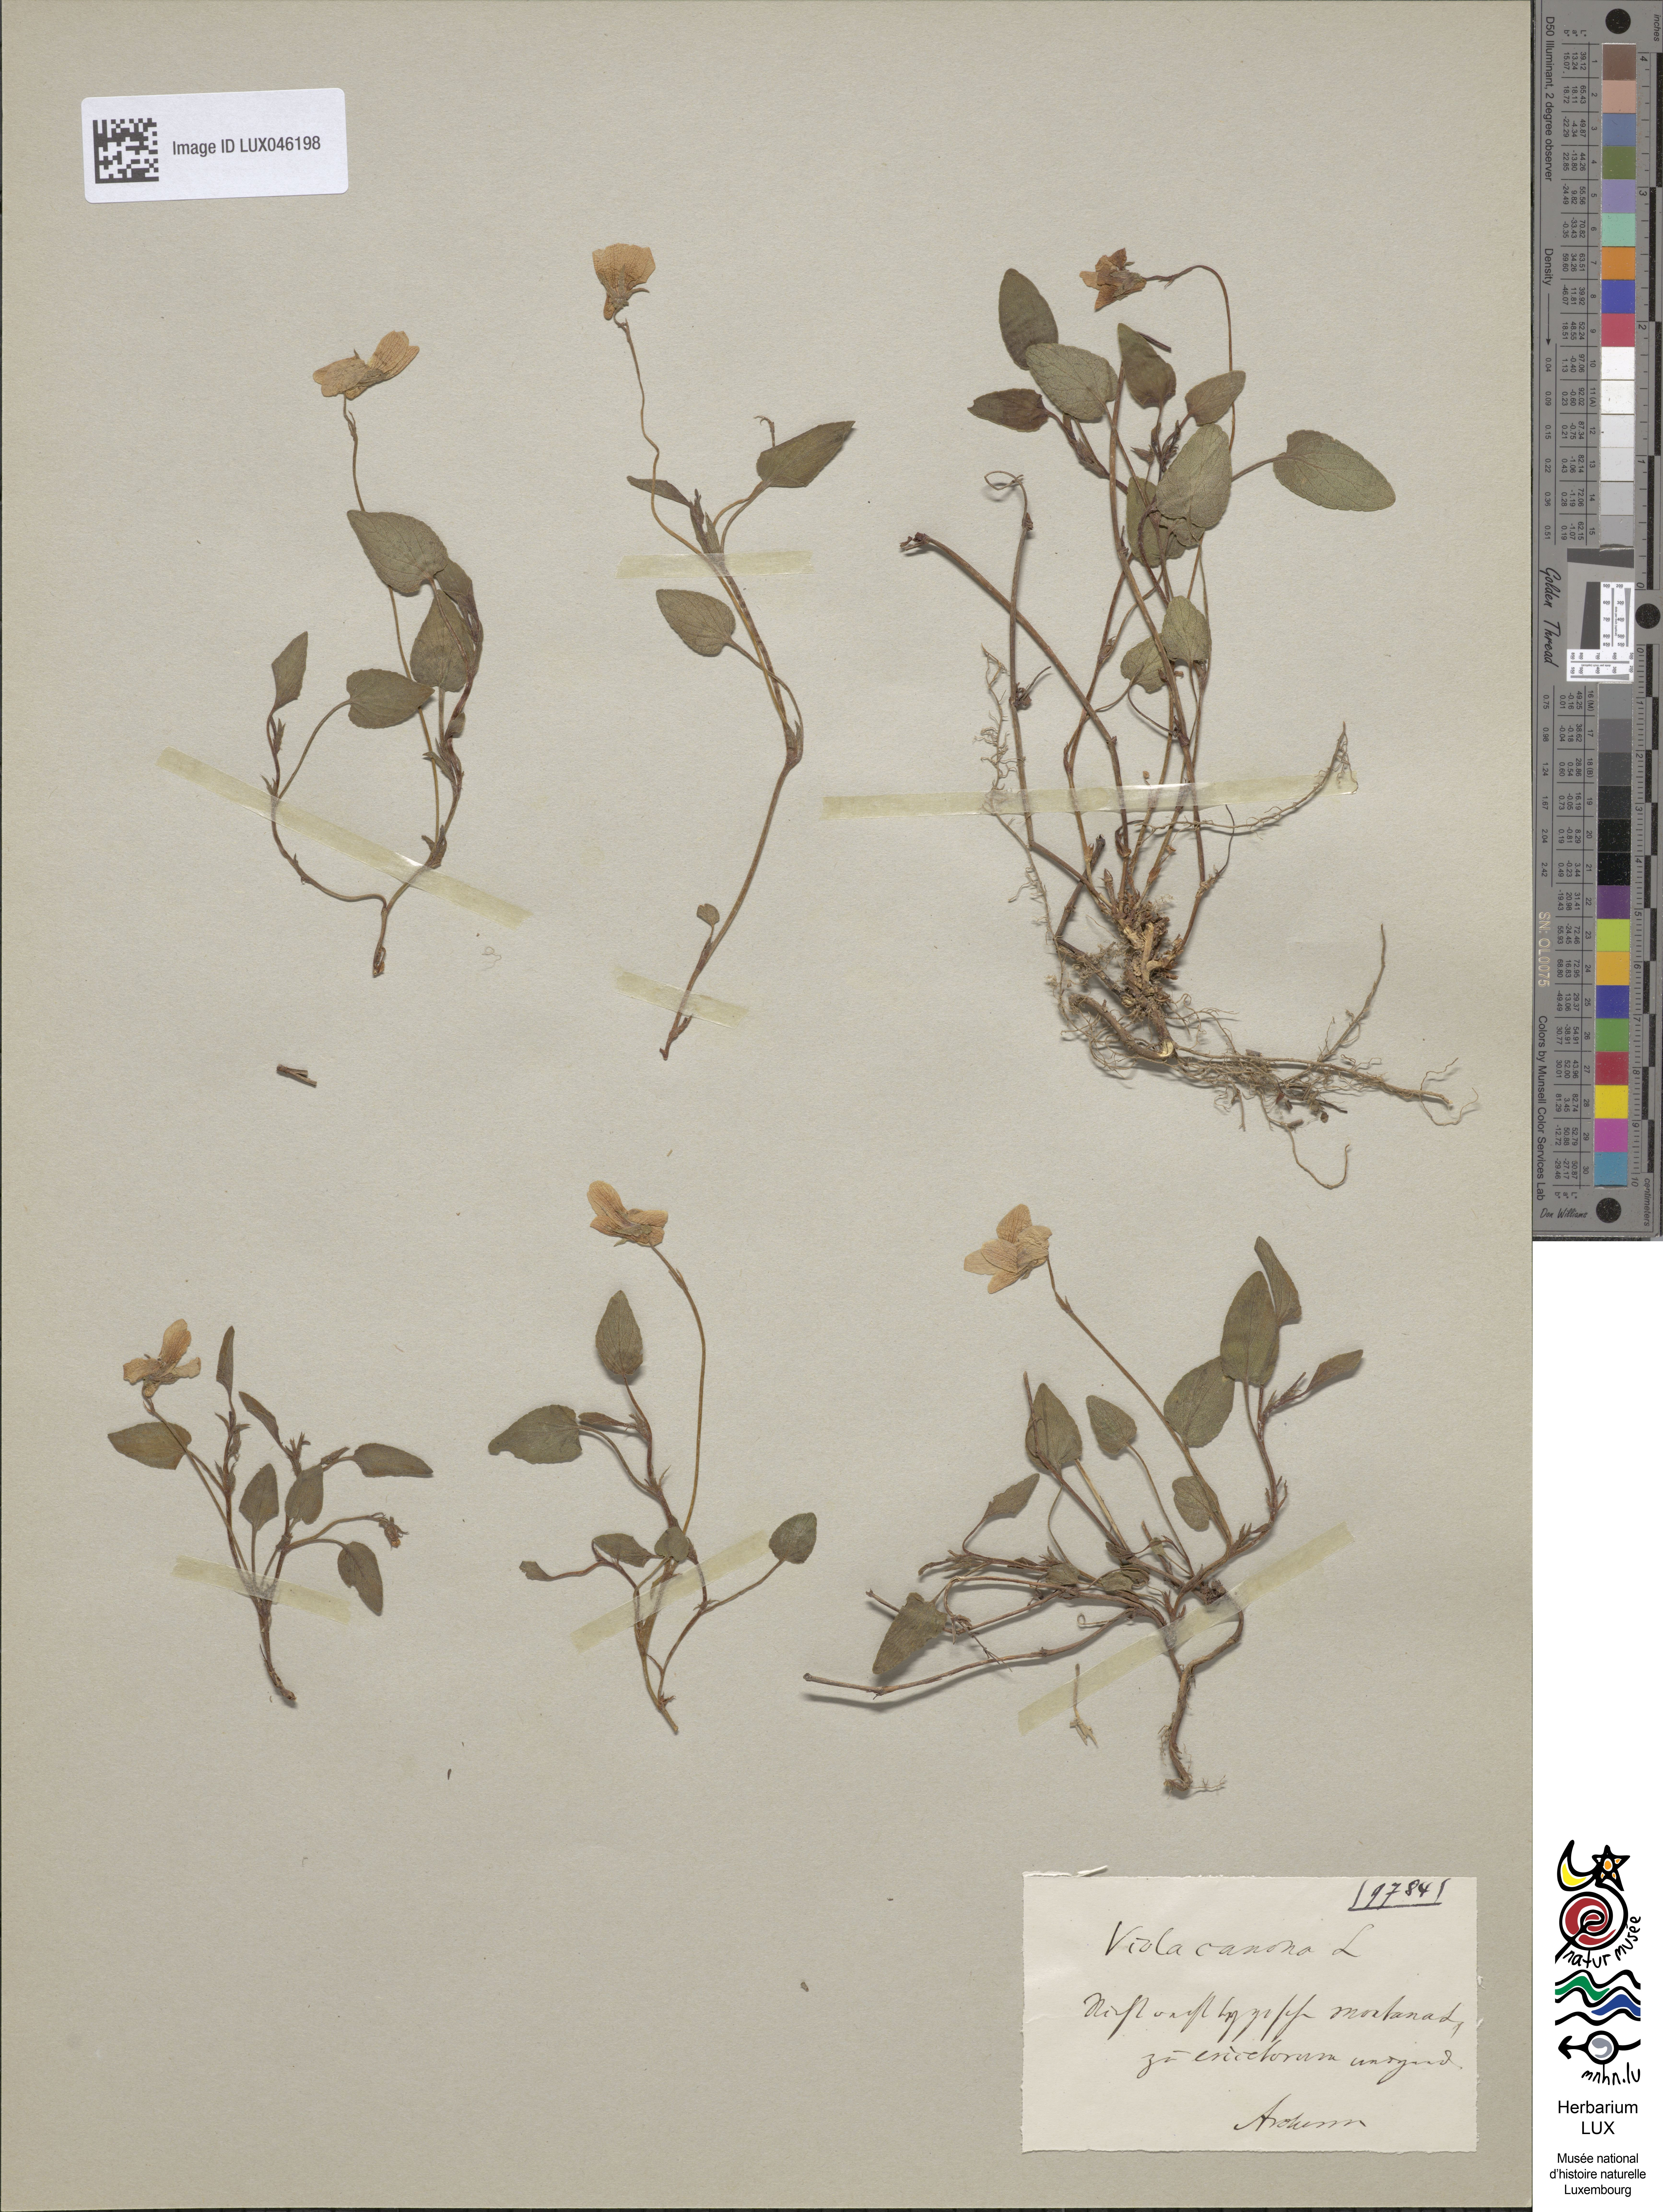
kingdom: Plantae
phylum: Tracheophyta
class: Magnoliopsida
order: Malpighiales
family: Violaceae
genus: Viola
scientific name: Viola canina
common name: Heath dog-violet
